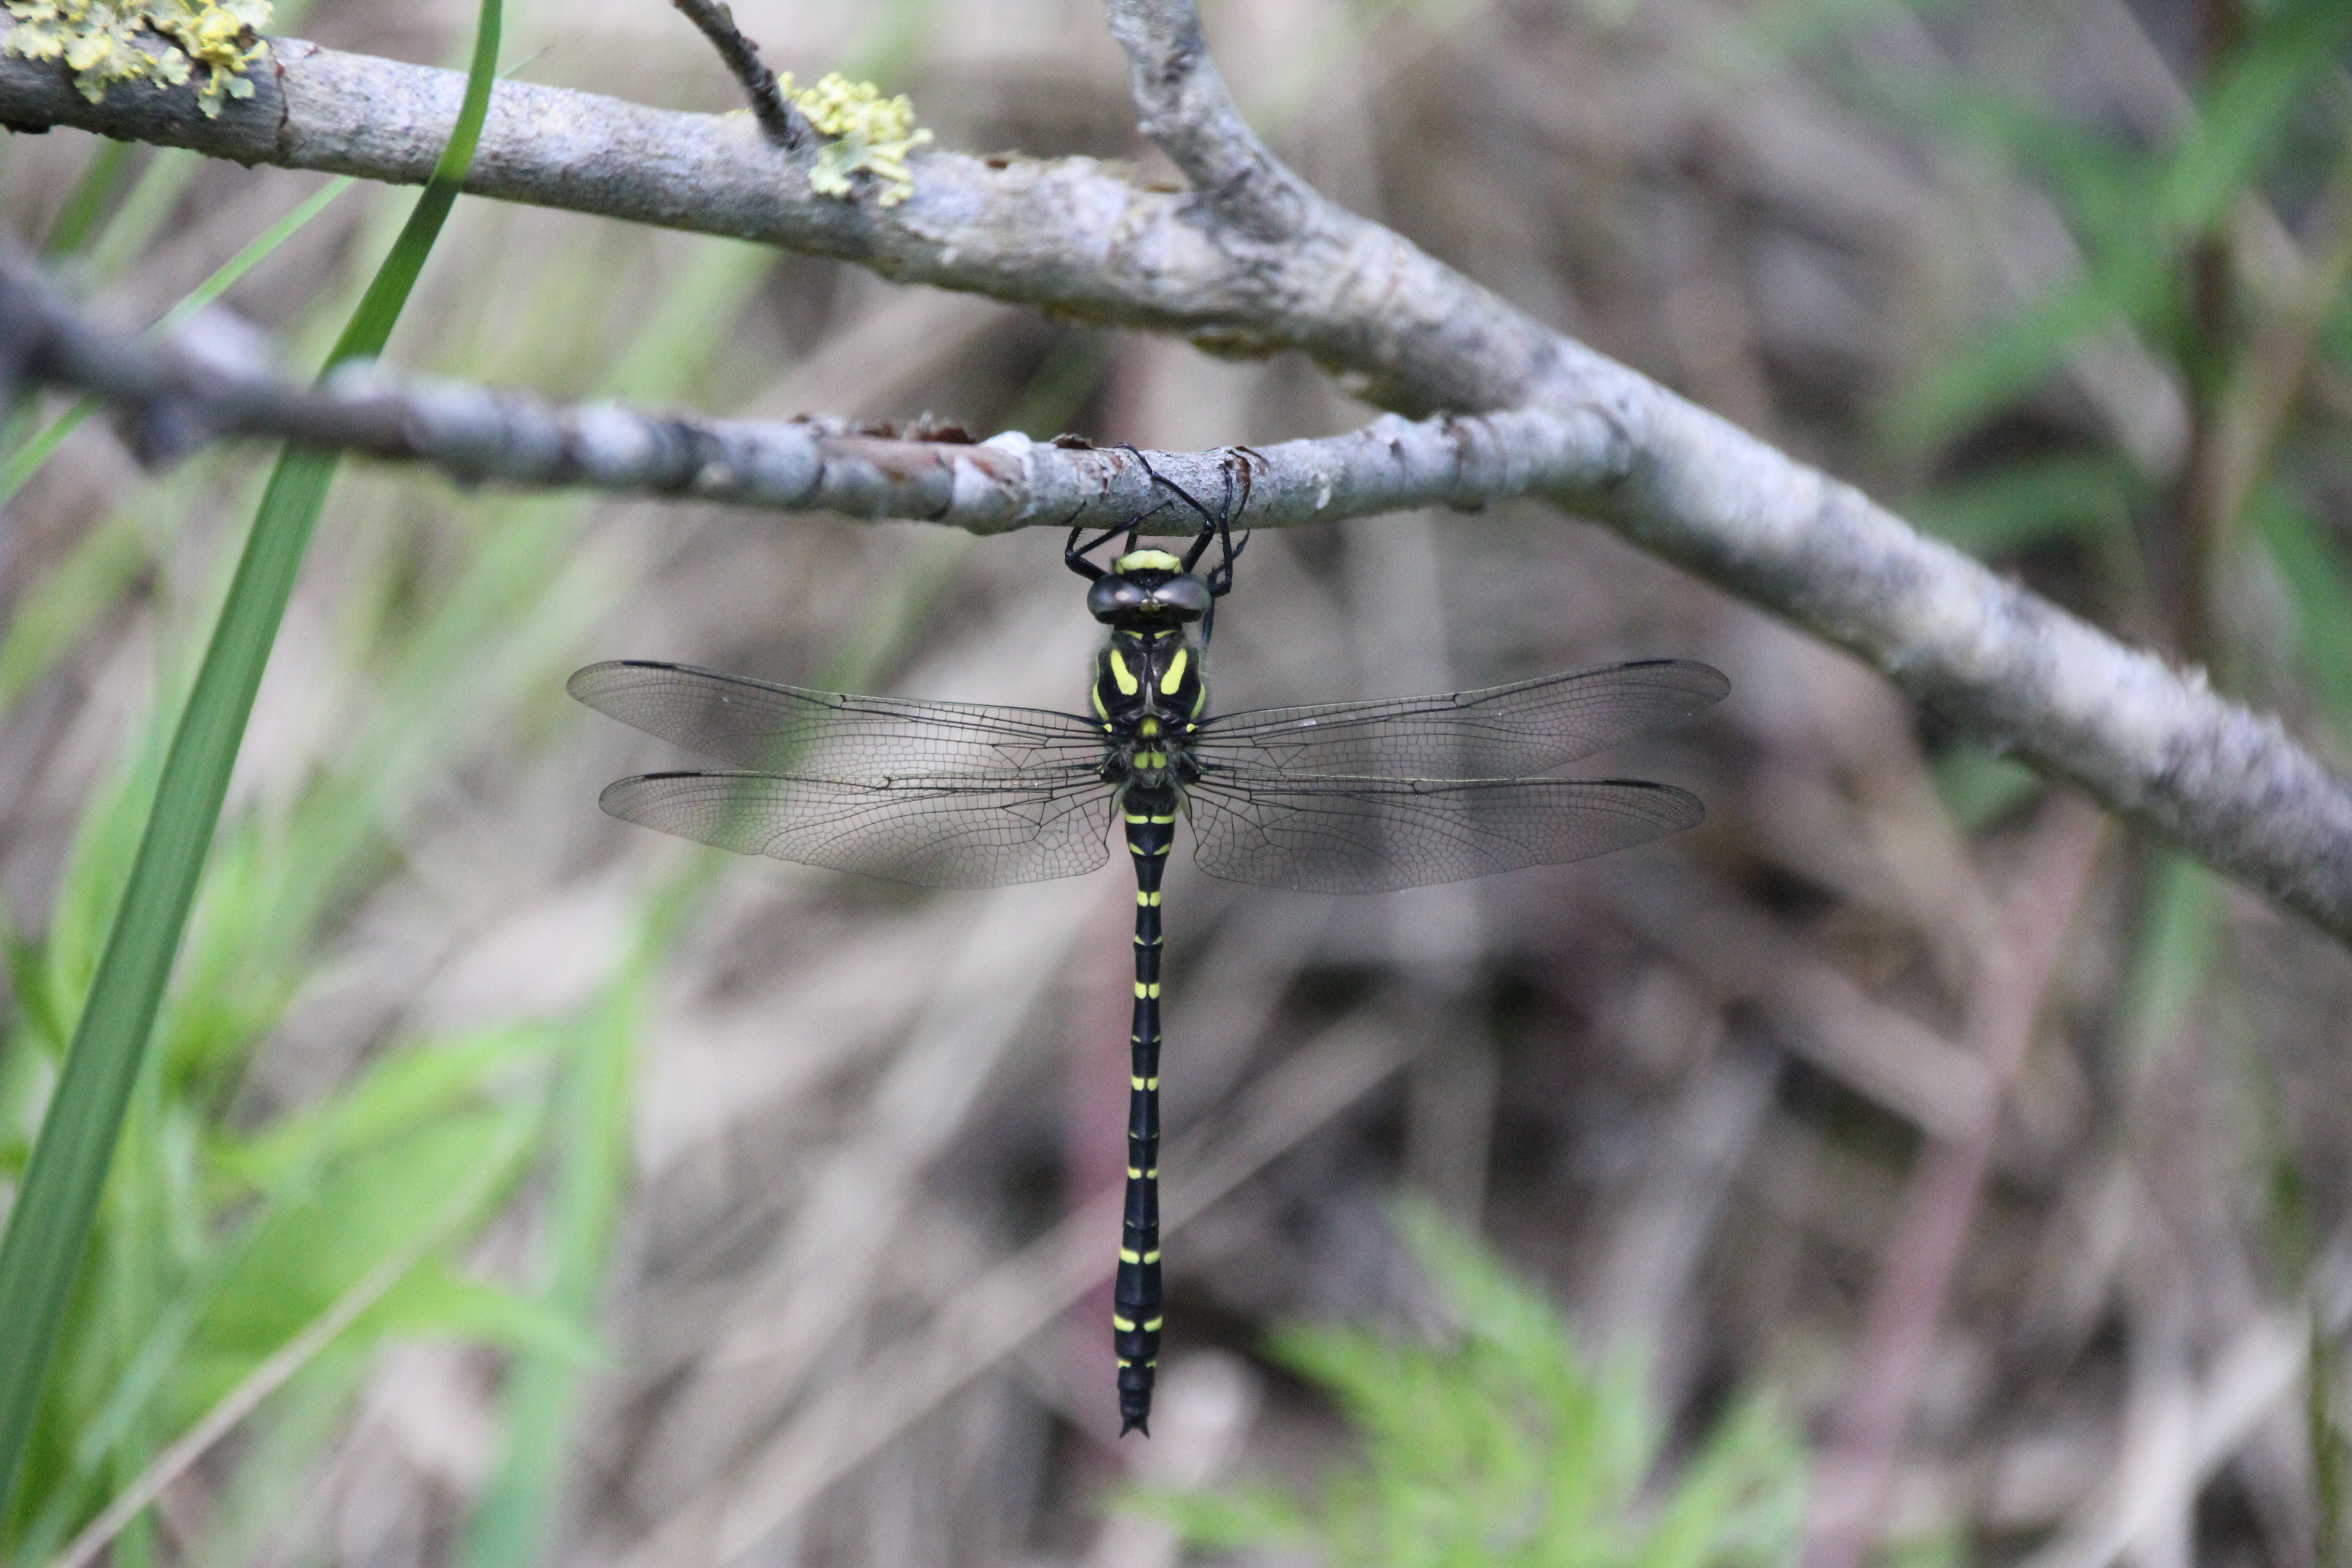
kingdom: Animalia
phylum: Arthropoda
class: Insecta
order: Odonata
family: Cordulegastridae
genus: Cordulegaster
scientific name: Cordulegaster boltonii
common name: Golden-ringed dragonfly
